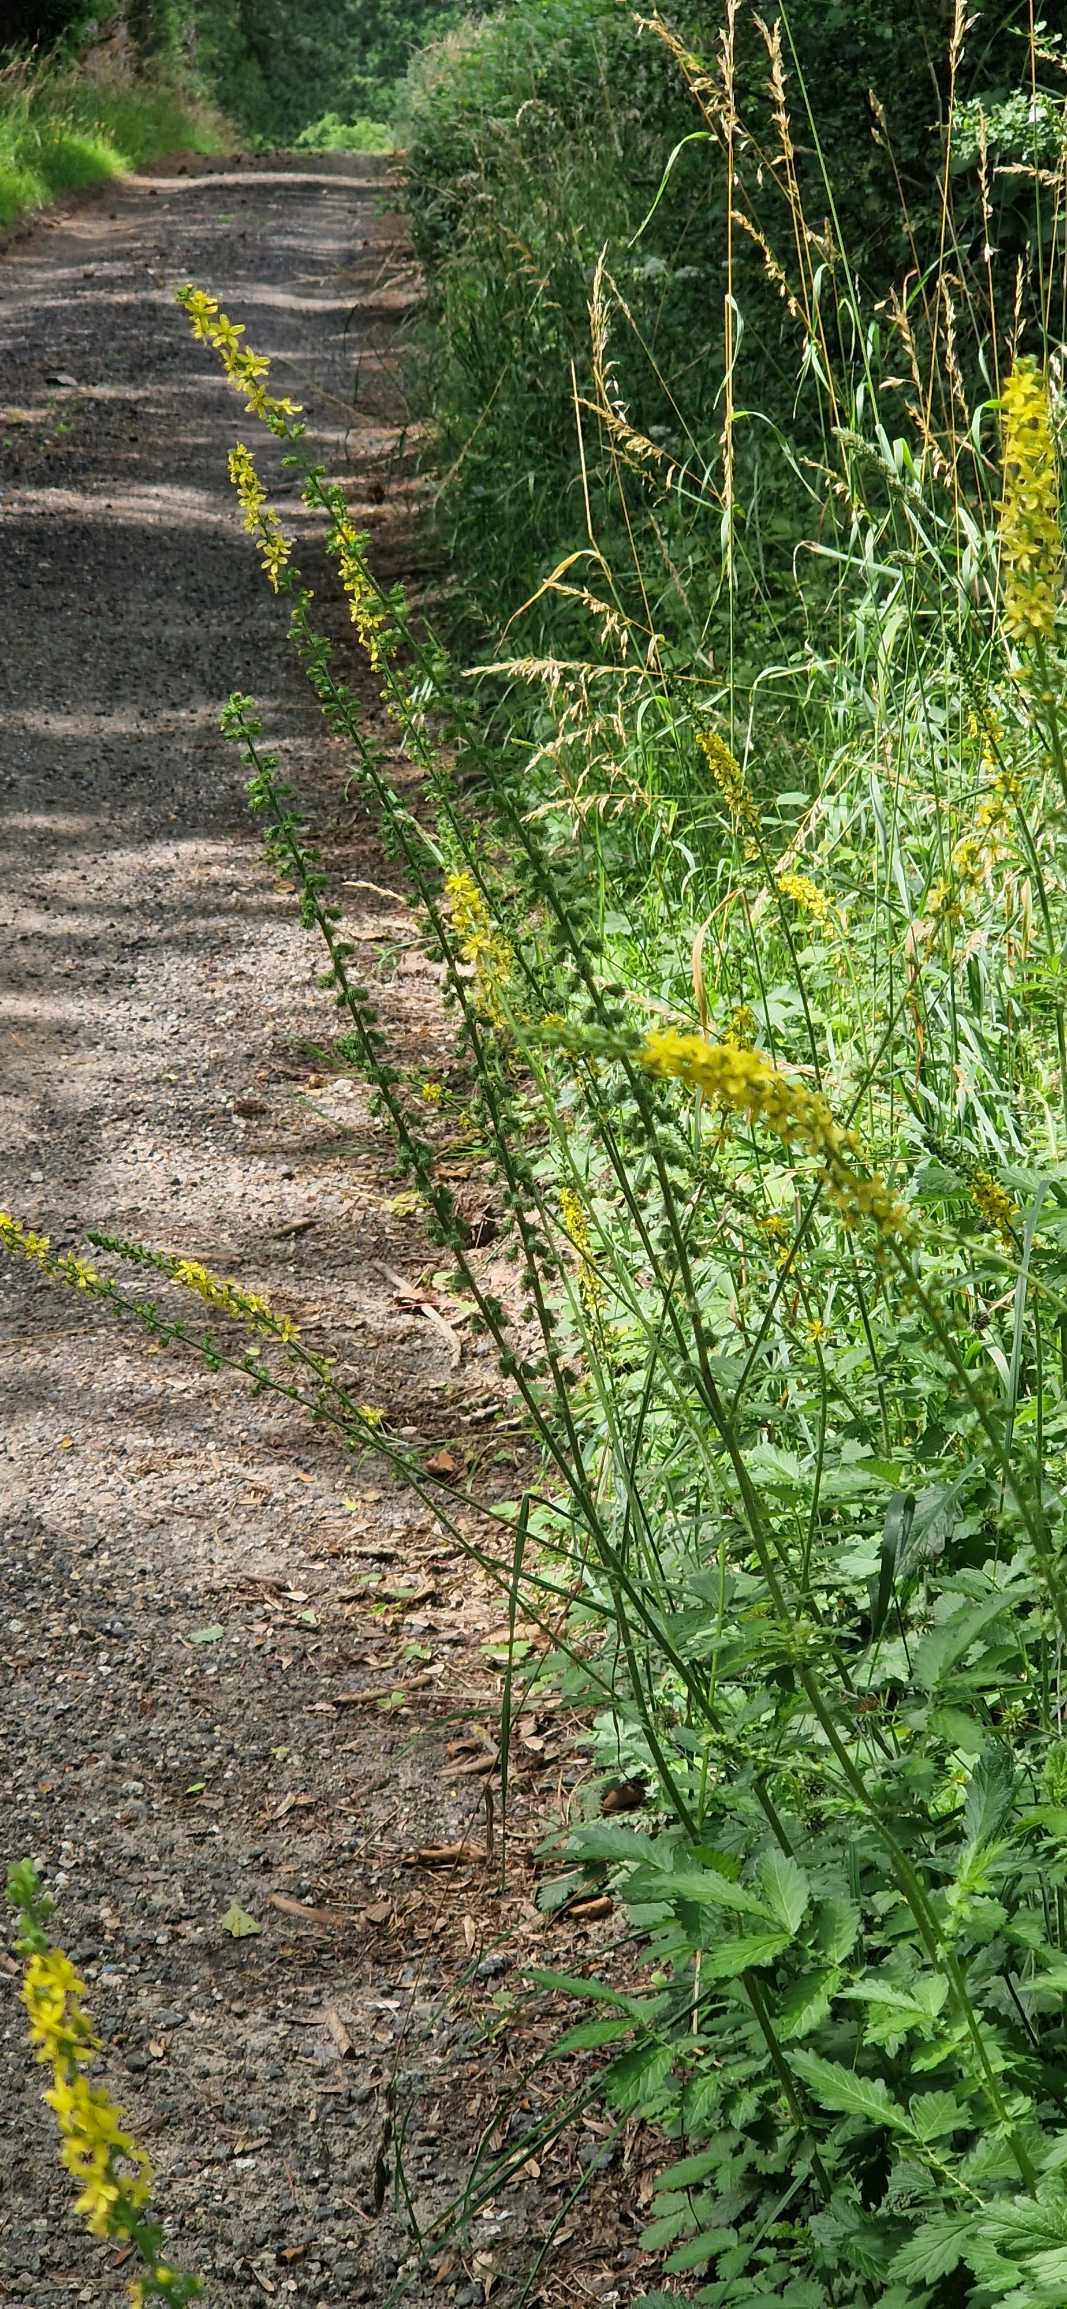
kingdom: Plantae
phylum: Tracheophyta
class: Magnoliopsida
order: Rosales
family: Rosaceae
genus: Agrimonia
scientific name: Agrimonia eupatoria
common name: Almindelig agermåne
